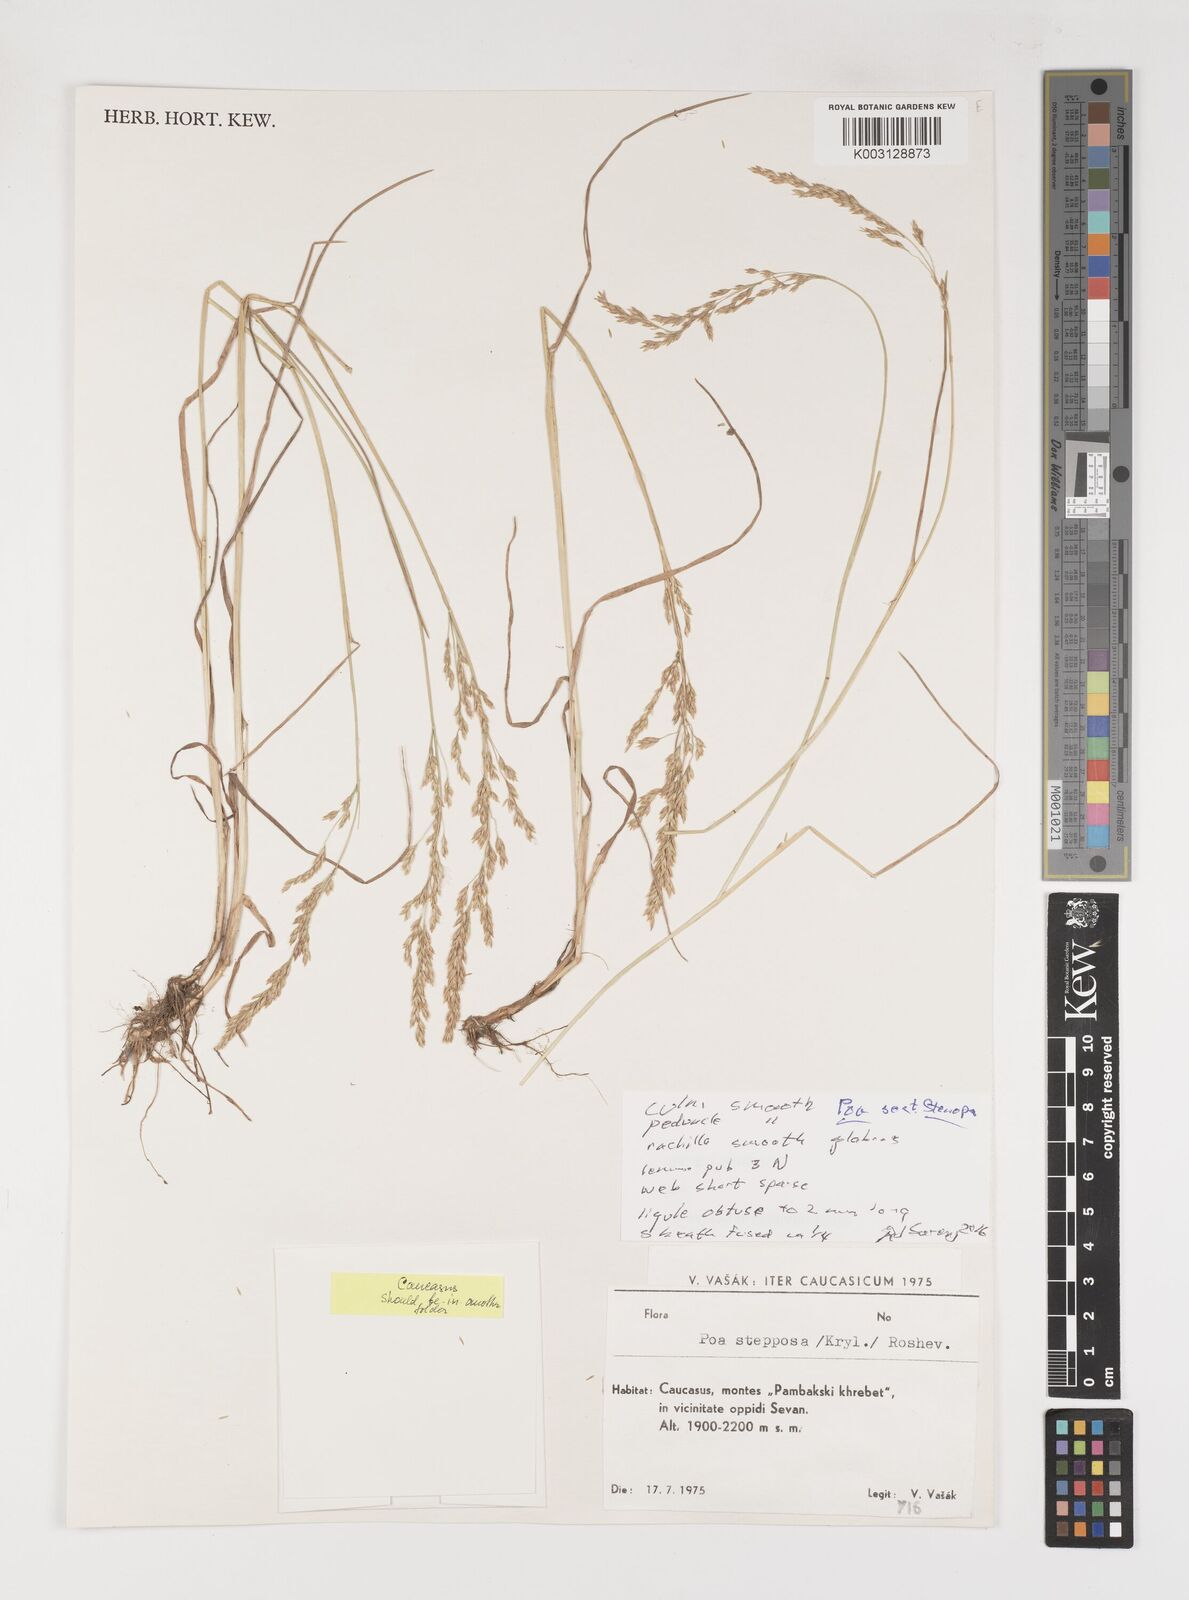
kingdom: Plantae
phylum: Tracheophyta
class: Liliopsida
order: Poales
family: Poaceae
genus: Poa
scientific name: Poa
